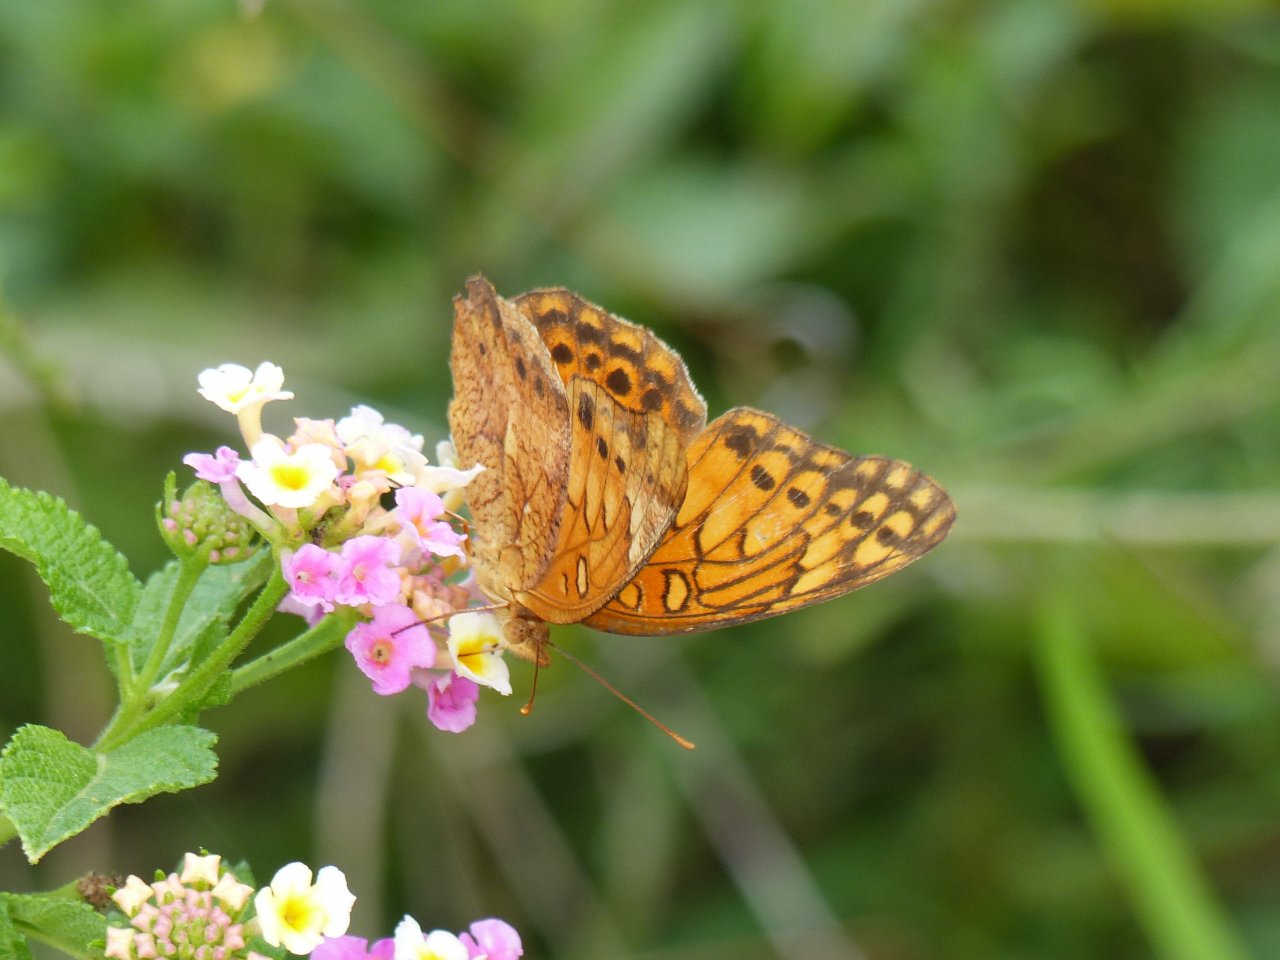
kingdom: Animalia
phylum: Arthropoda
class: Insecta
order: Lepidoptera
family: Nymphalidae
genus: Euptoieta
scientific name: Euptoieta hegesia
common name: Mexican Fritillary
